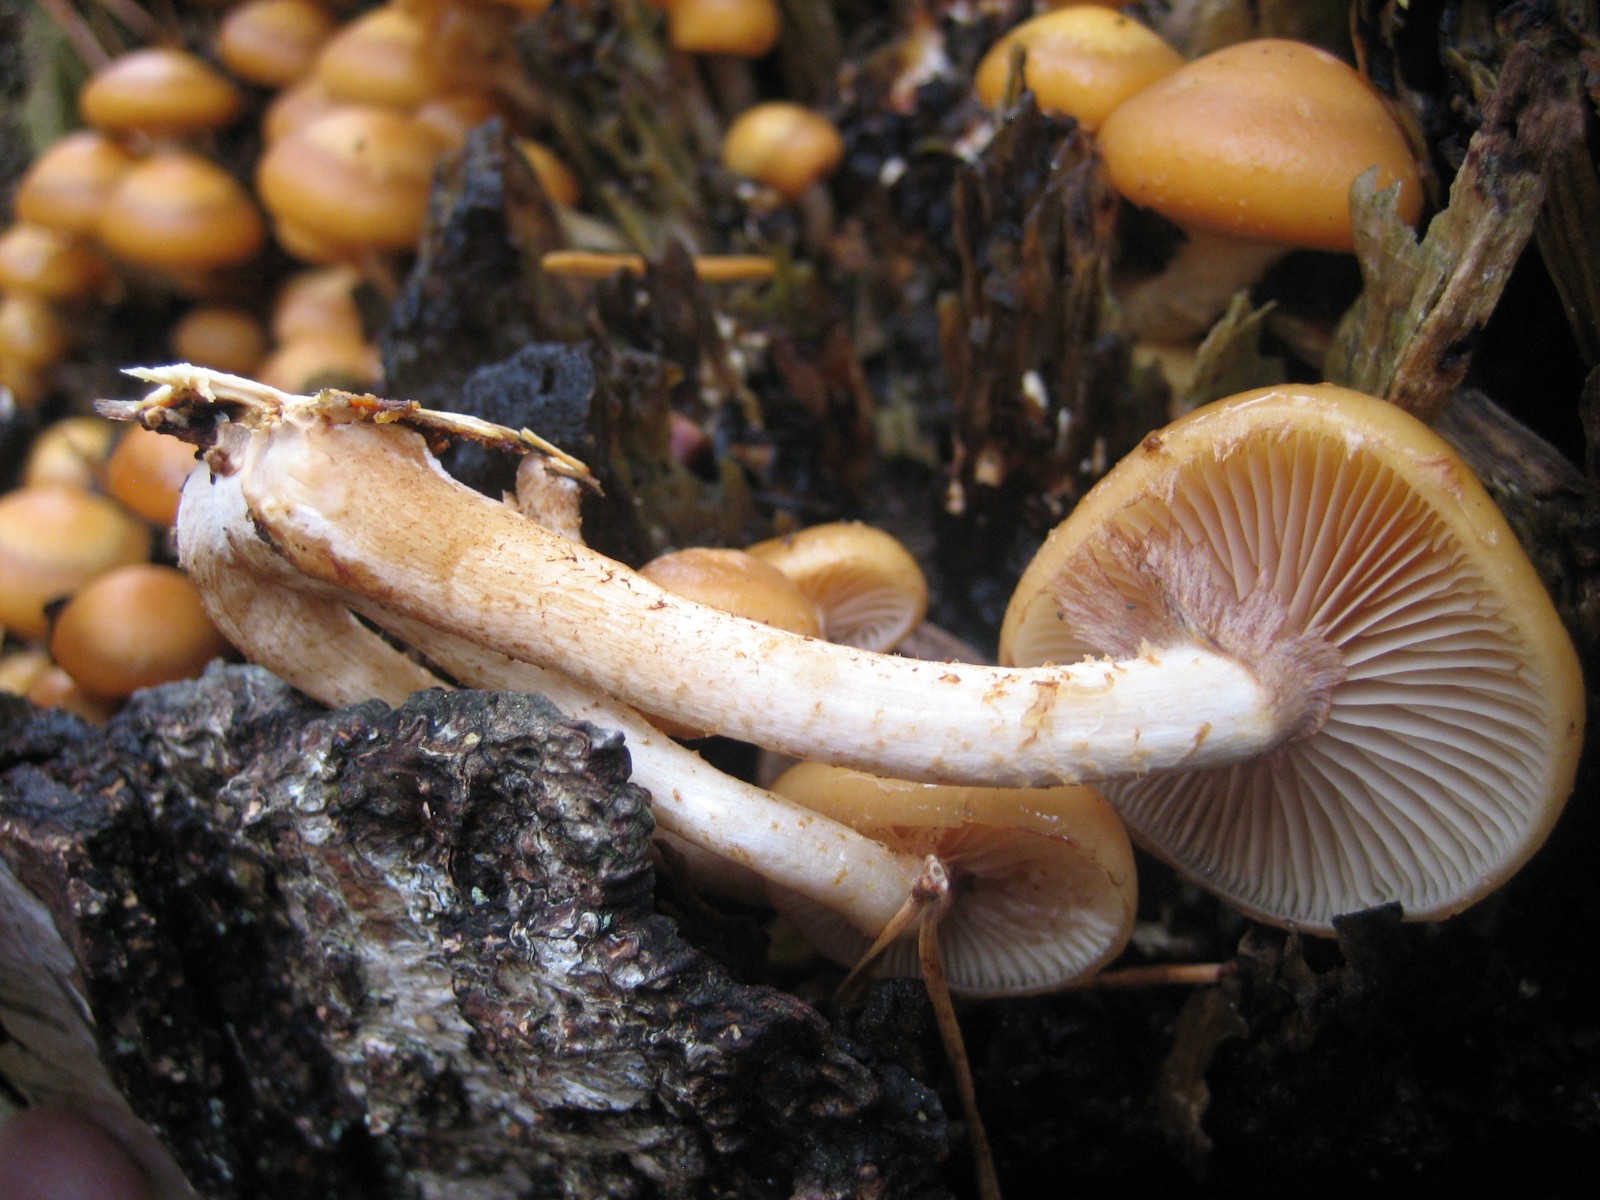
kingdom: Fungi
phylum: Basidiomycota
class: Agaricomycetes
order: Agaricales
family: Strophariaceae
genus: Kuehneromyces
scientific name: Kuehneromyces mutabilis
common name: foranderlig skælhat
